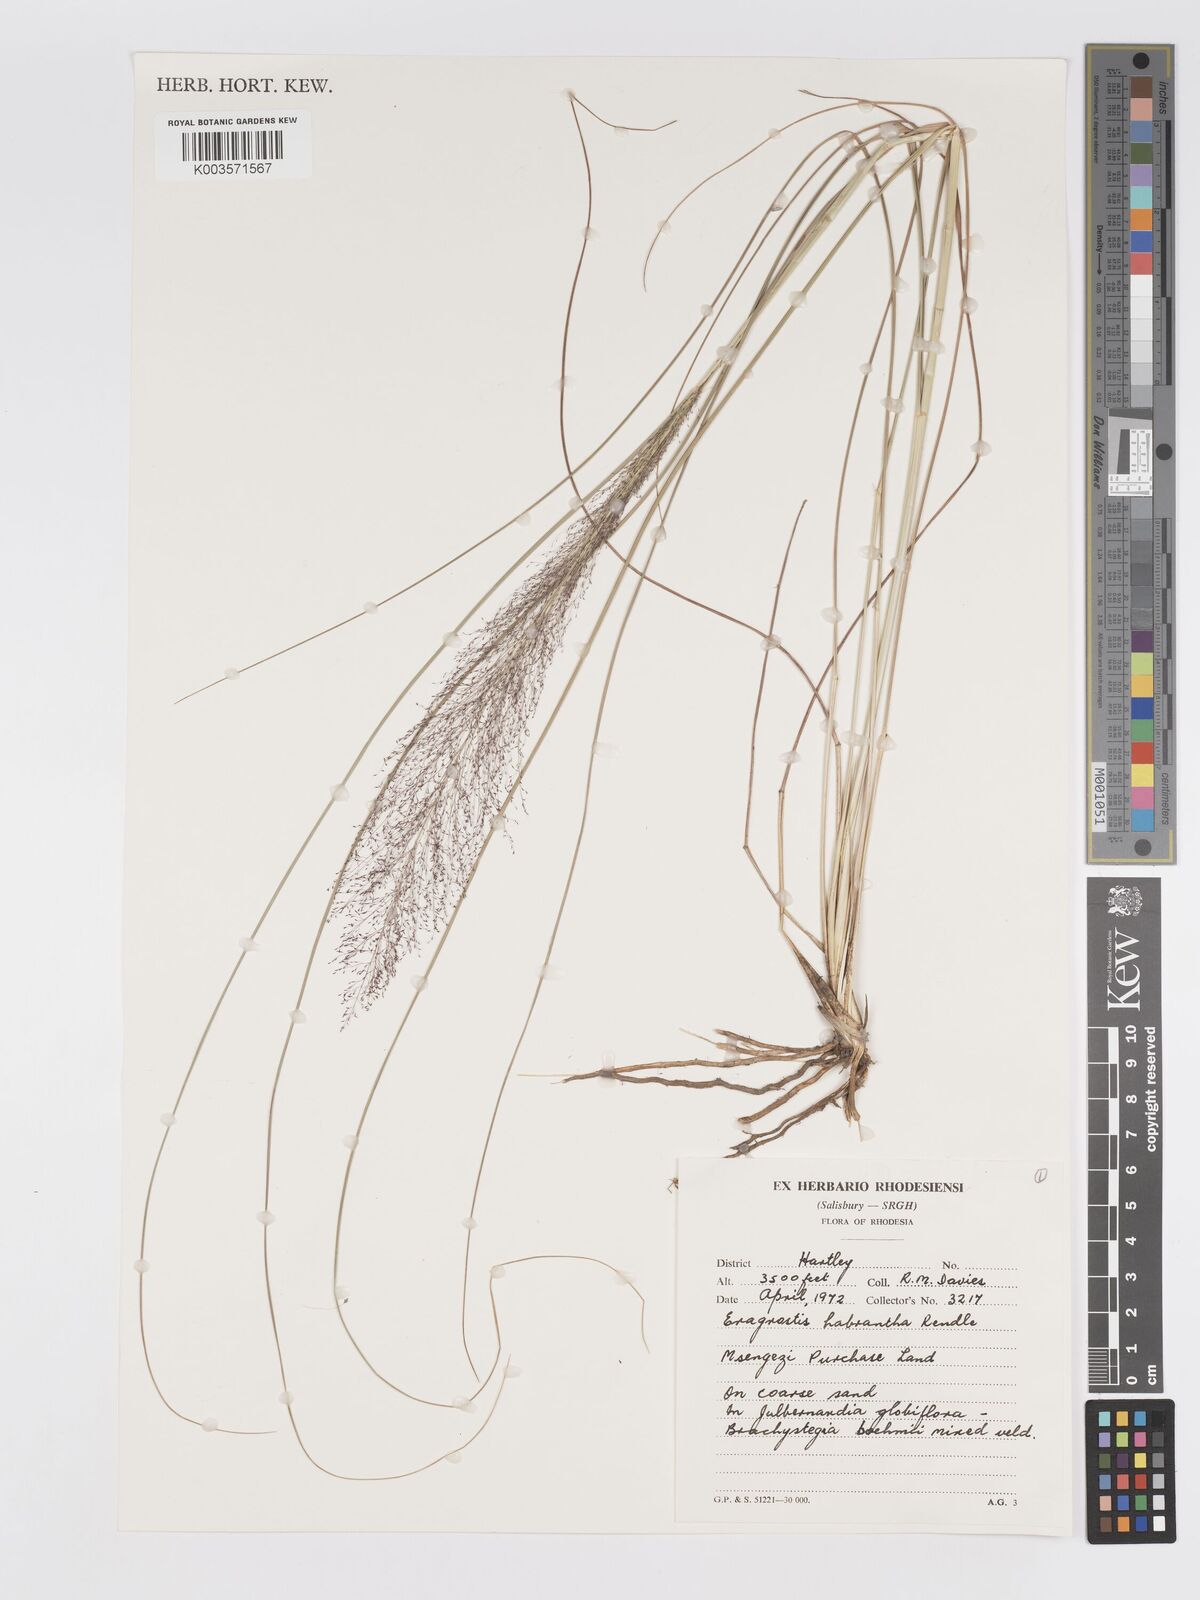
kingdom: Plantae
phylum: Tracheophyta
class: Liliopsida
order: Poales
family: Poaceae
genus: Eragrostis
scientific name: Eragrostis habrantha
